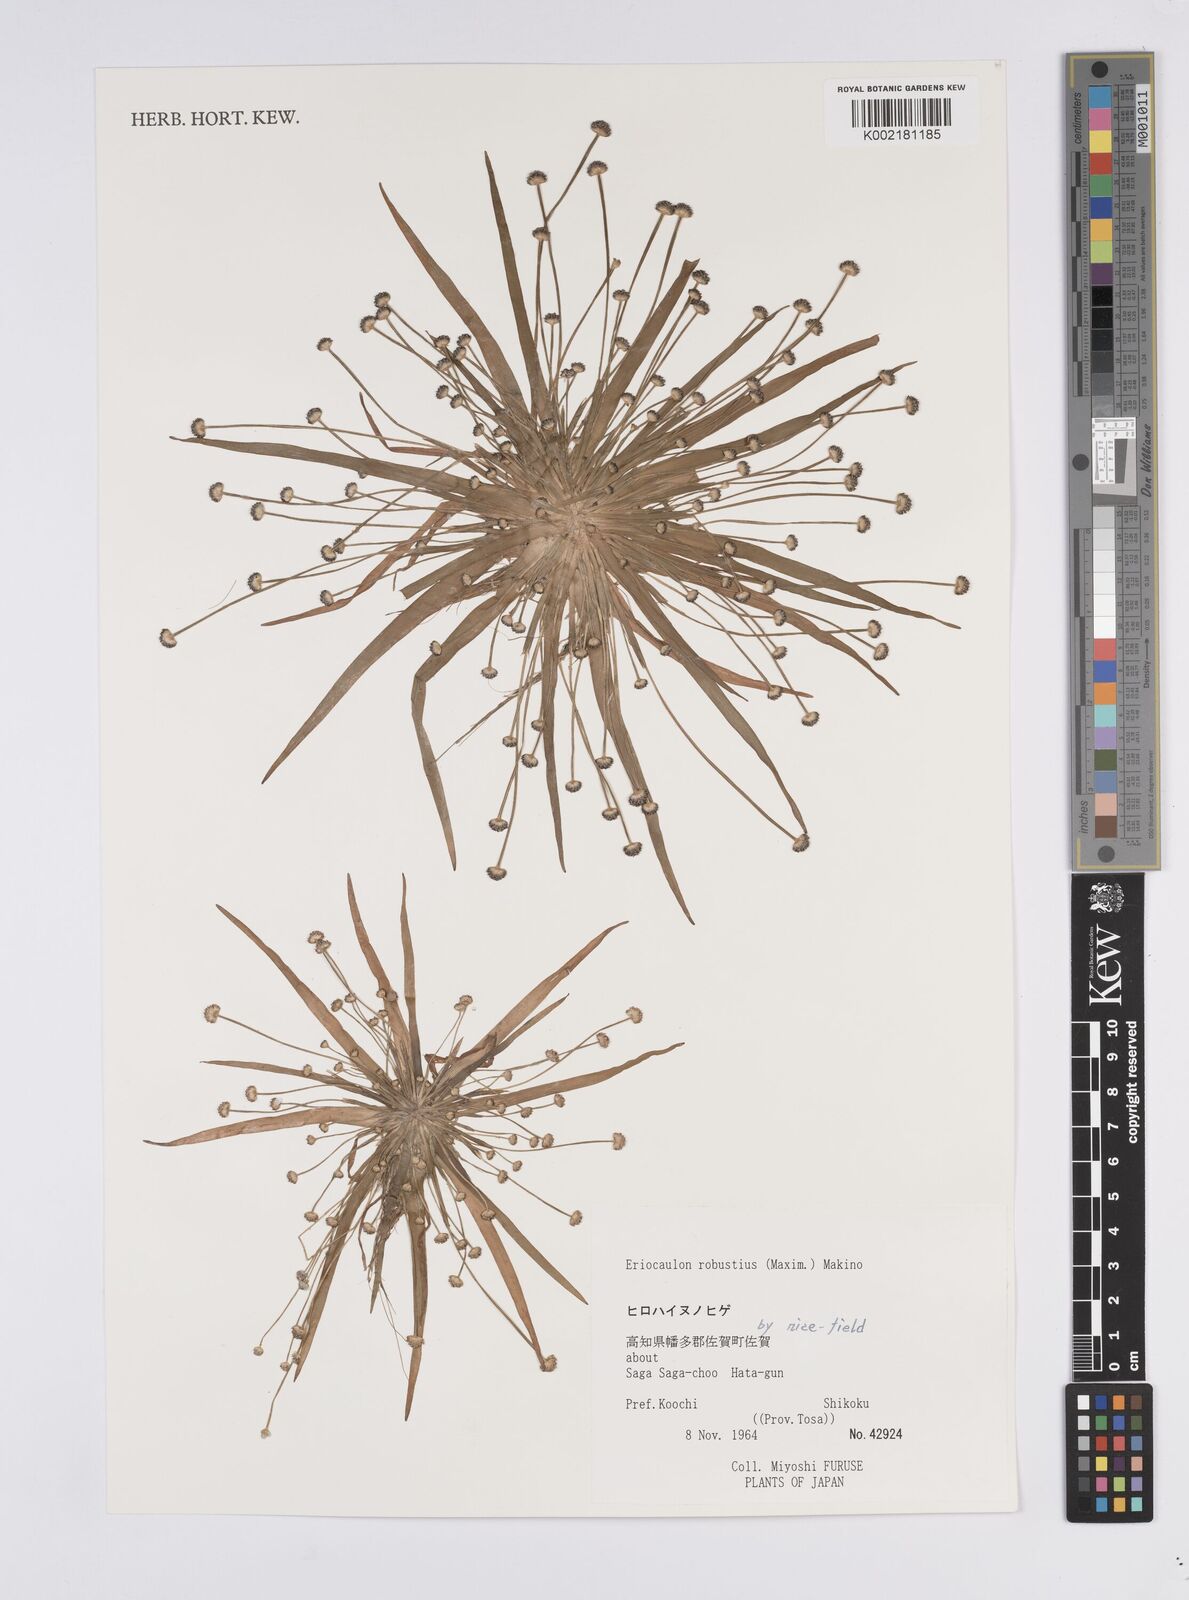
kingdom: Plantae
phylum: Tracheophyta
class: Liliopsida
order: Poales
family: Eriocaulaceae
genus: Eriocaulon
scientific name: Eriocaulon alpestre
